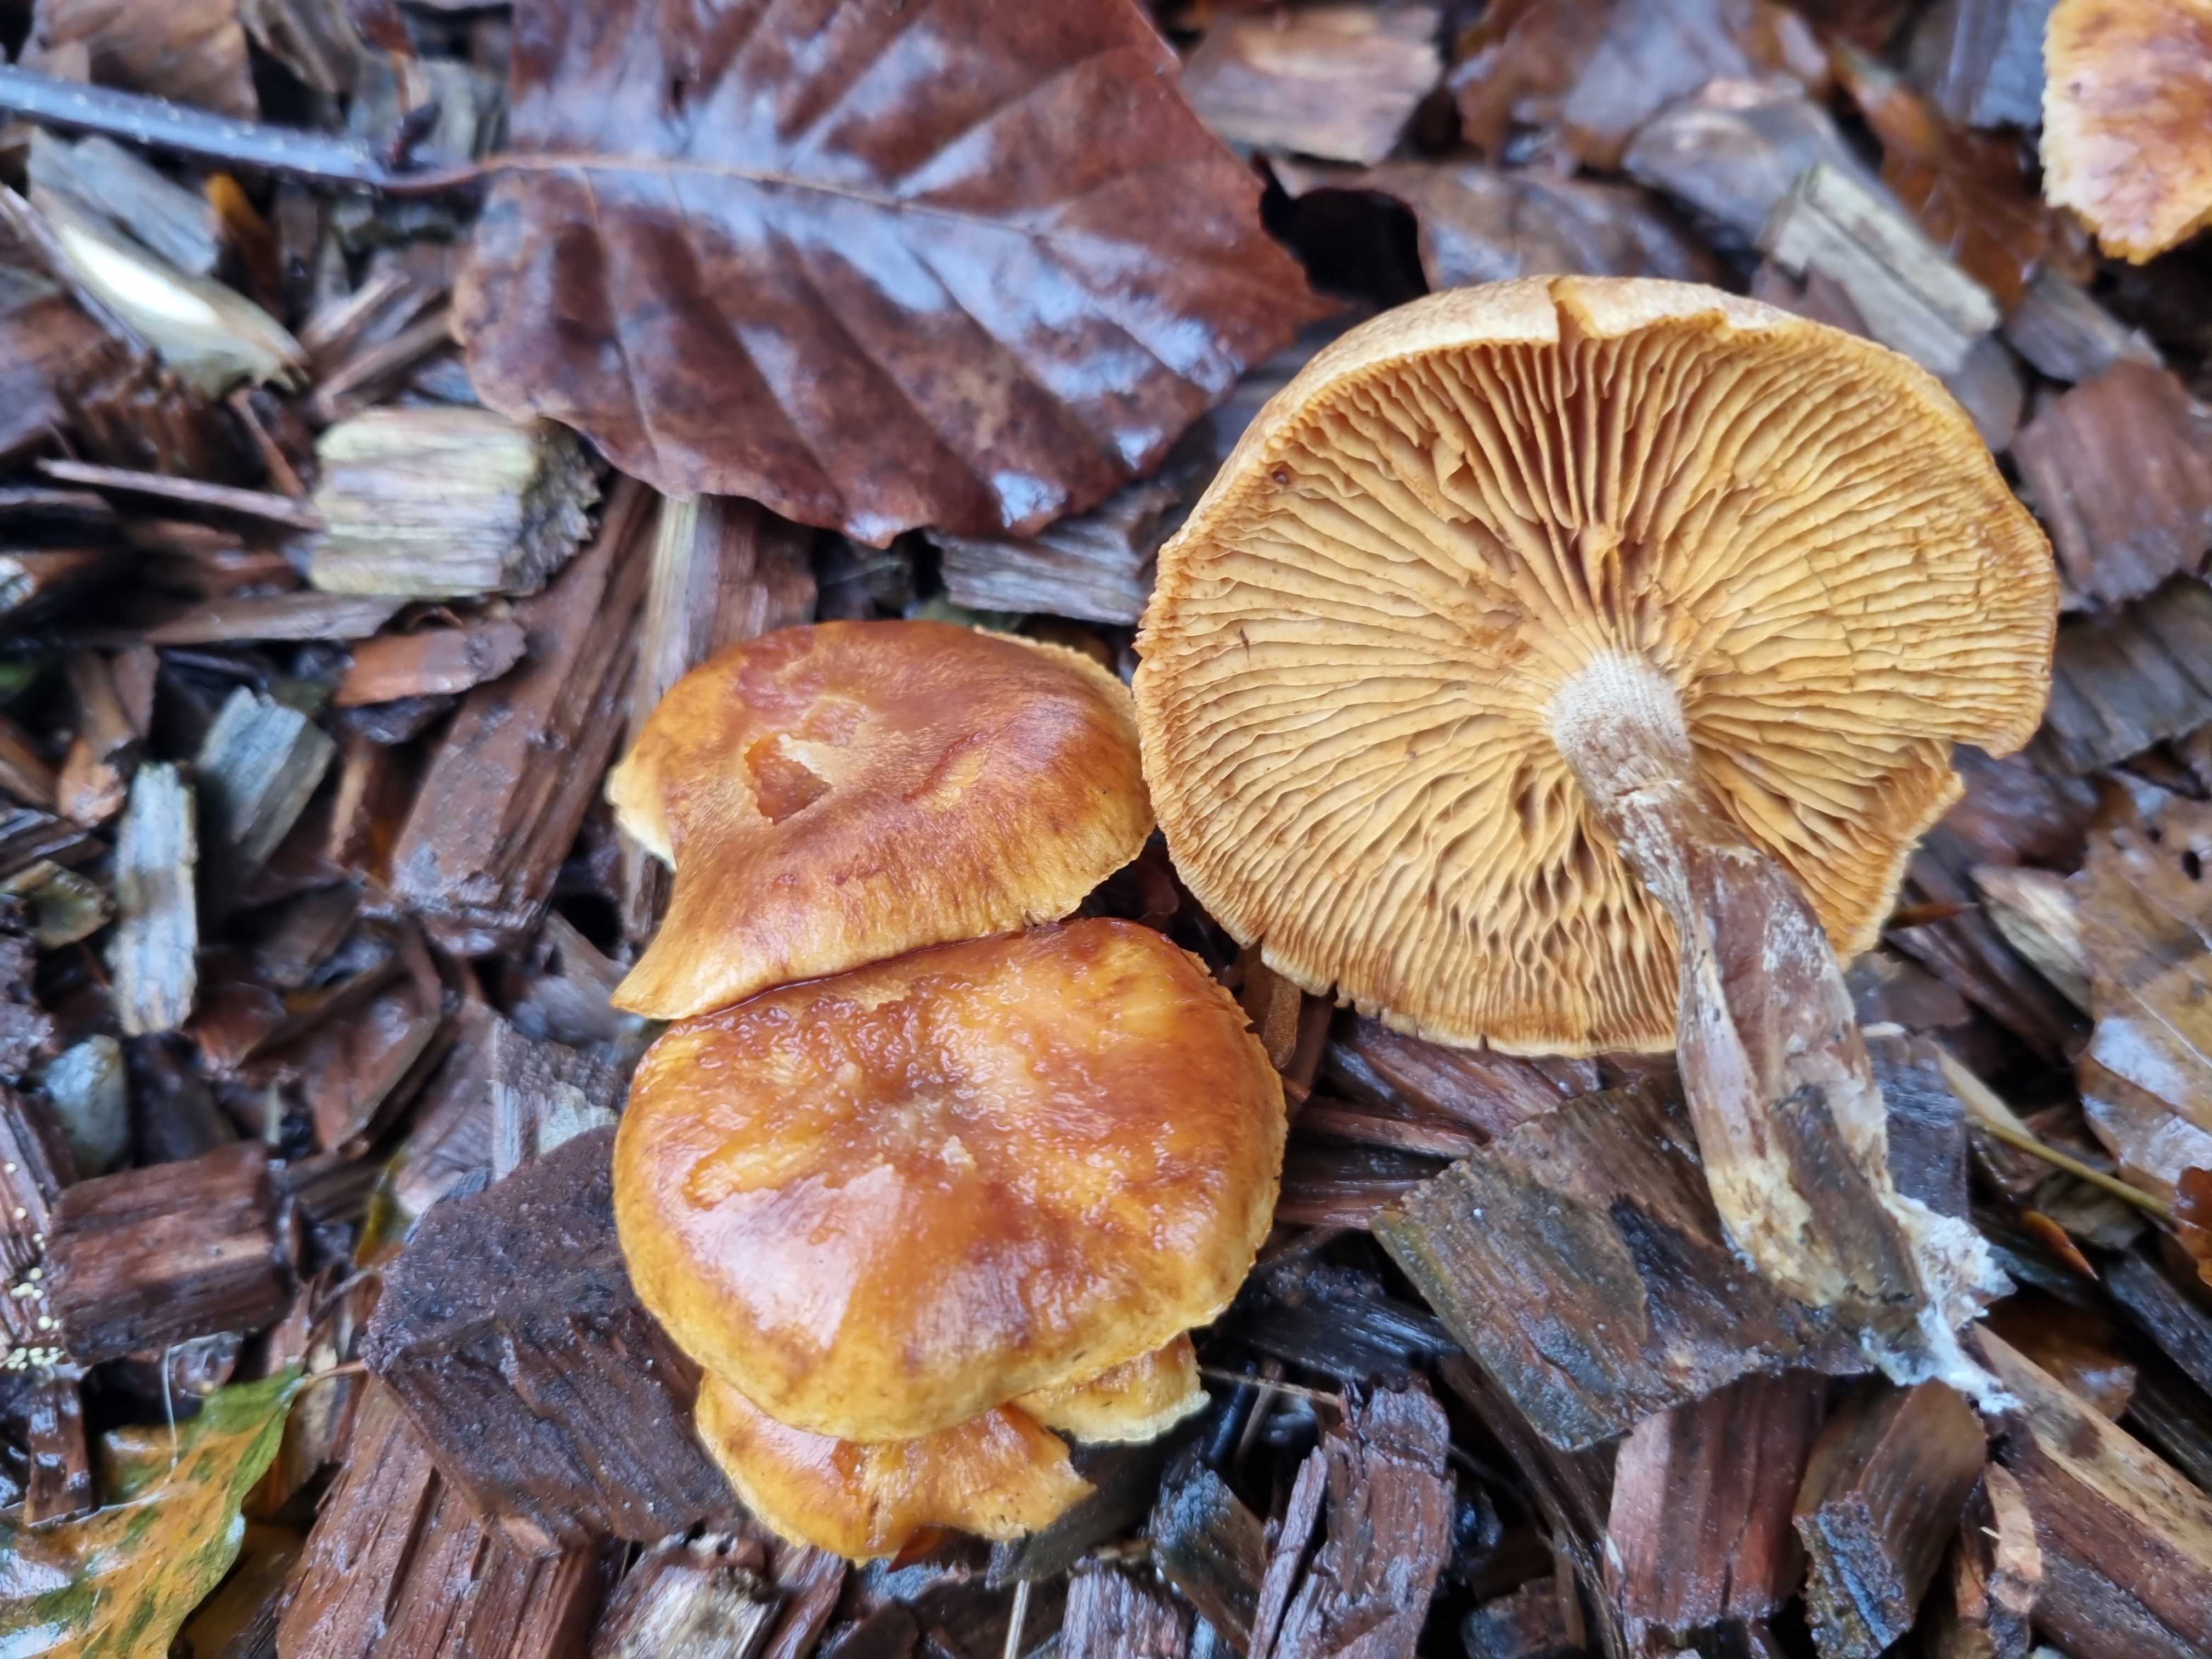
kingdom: Fungi
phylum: Basidiomycota
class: Agaricomycetes
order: Agaricales
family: Hymenogastraceae
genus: Gymnopilus
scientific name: Gymnopilus penetrans
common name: plettet flammehat
